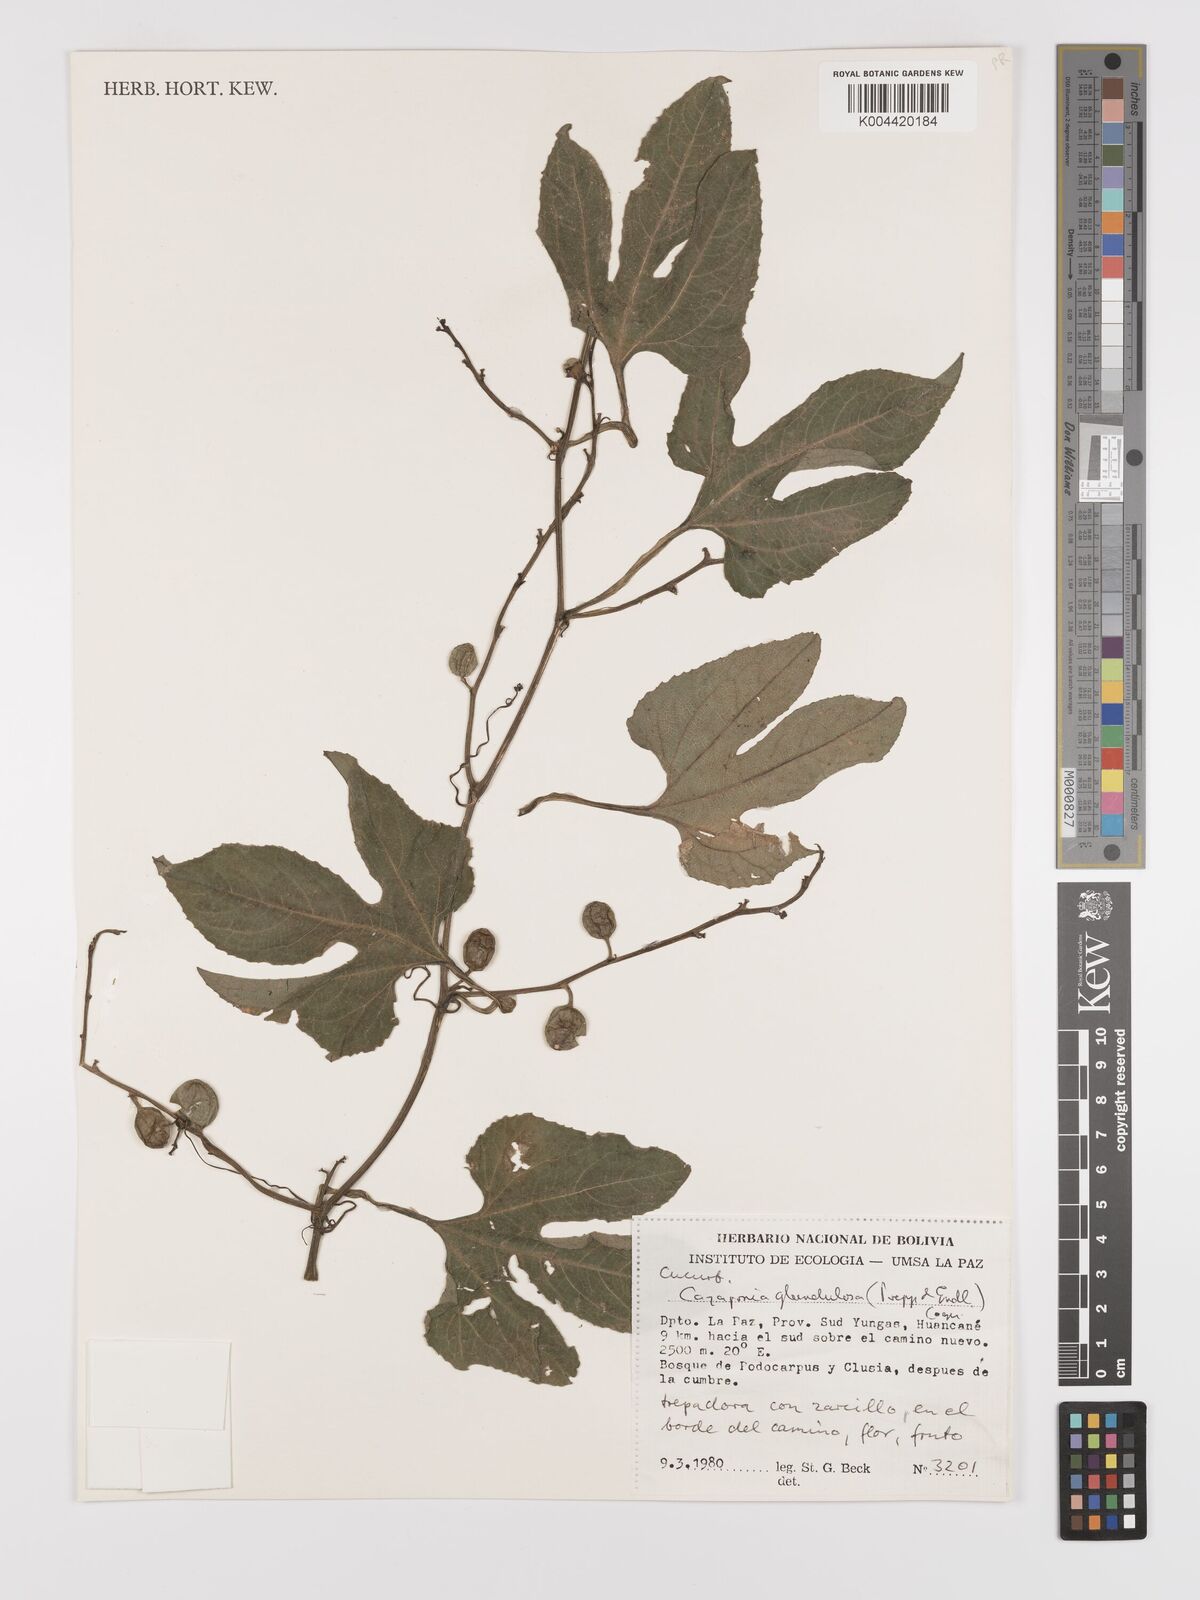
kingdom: Plantae
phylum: Tracheophyta
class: Magnoliopsida
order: Cucurbitales
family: Cucurbitaceae
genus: Cayaponia
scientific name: Cayaponia tayuya
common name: Tayuya
